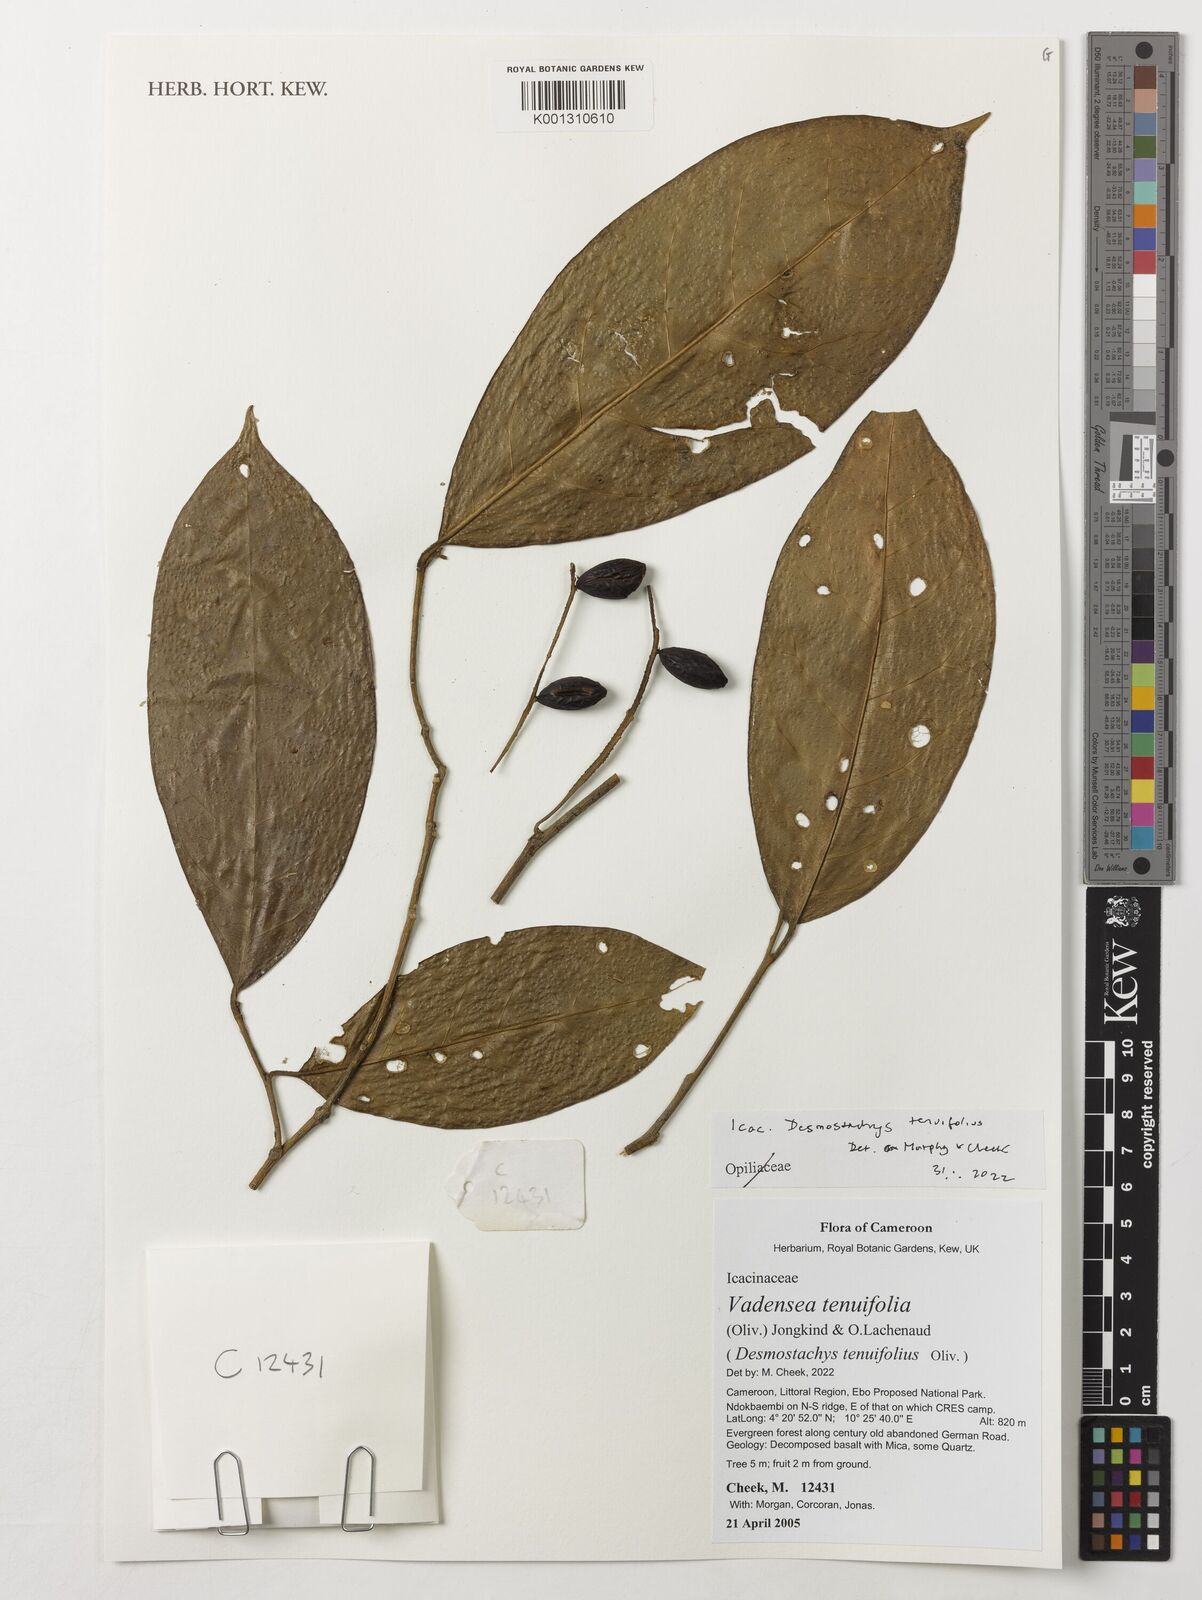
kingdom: Plantae
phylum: Tracheophyta
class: Magnoliopsida
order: Icacinales
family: Icacinaceae
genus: Vadensea
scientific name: Vadensea tenuifolia
